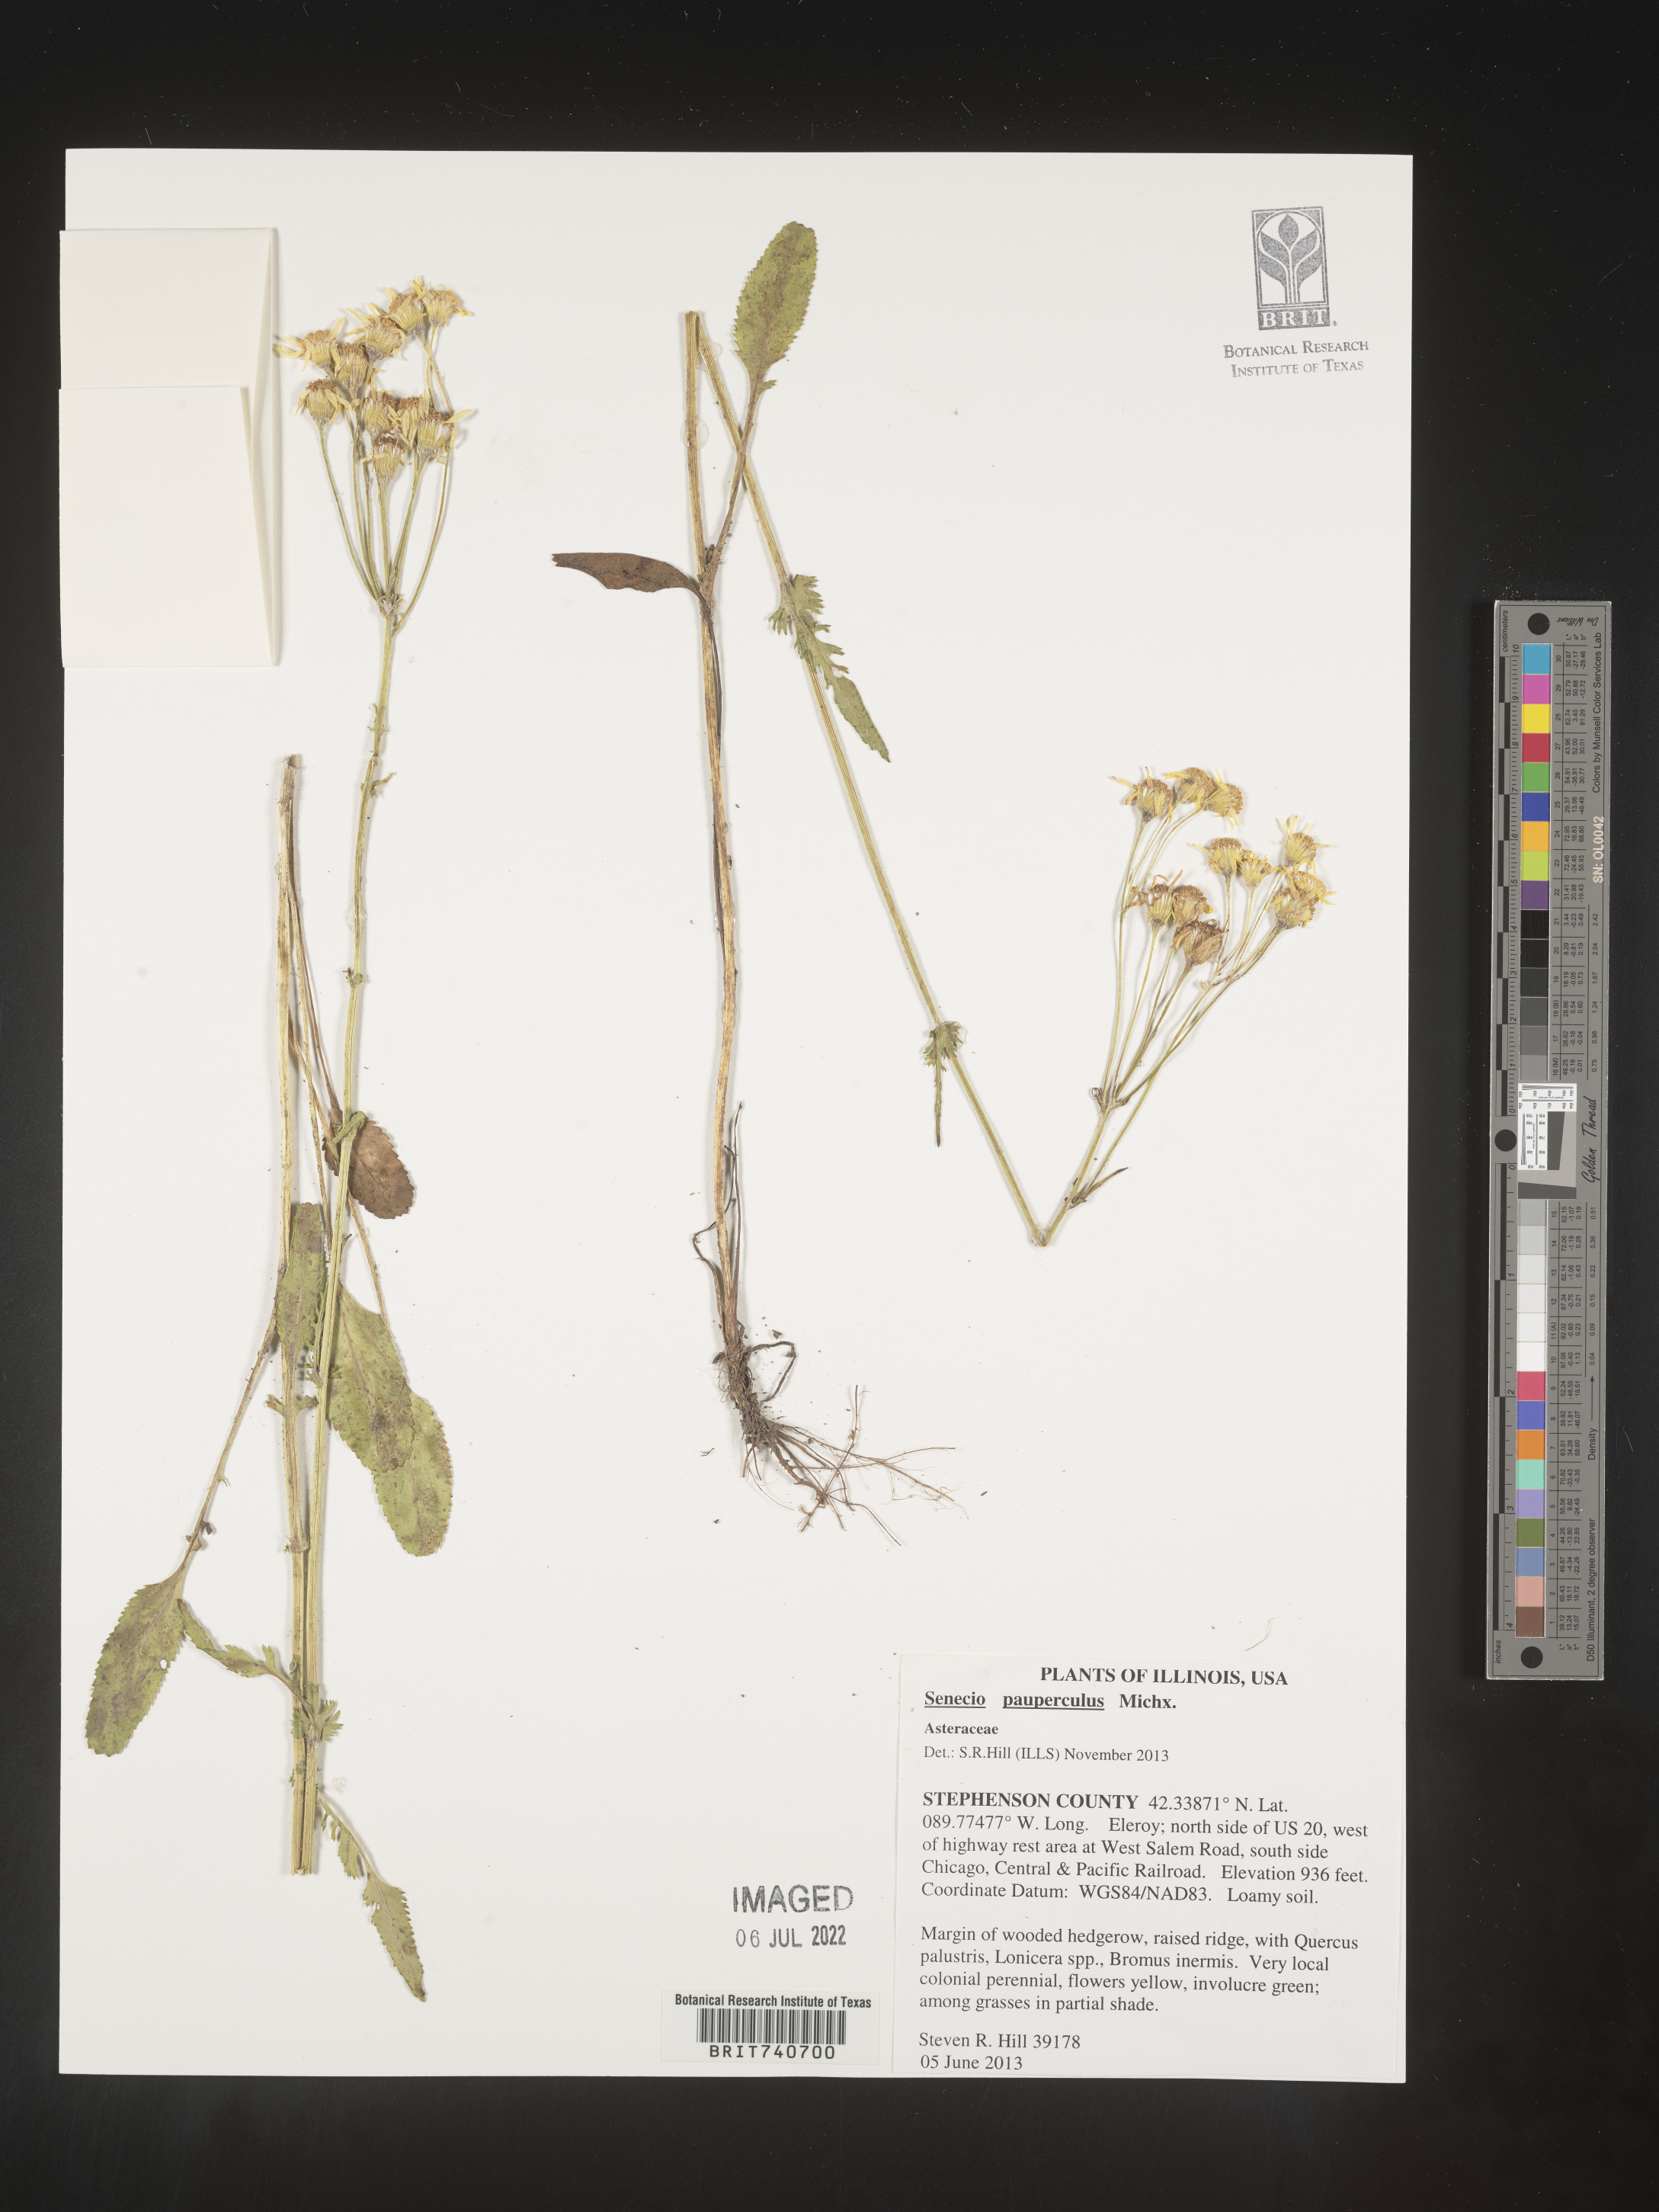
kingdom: Plantae
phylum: Tracheophyta
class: Magnoliopsida
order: Asterales
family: Asteraceae
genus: Packera
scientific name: Packera paupercula
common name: Balsam groundsel
